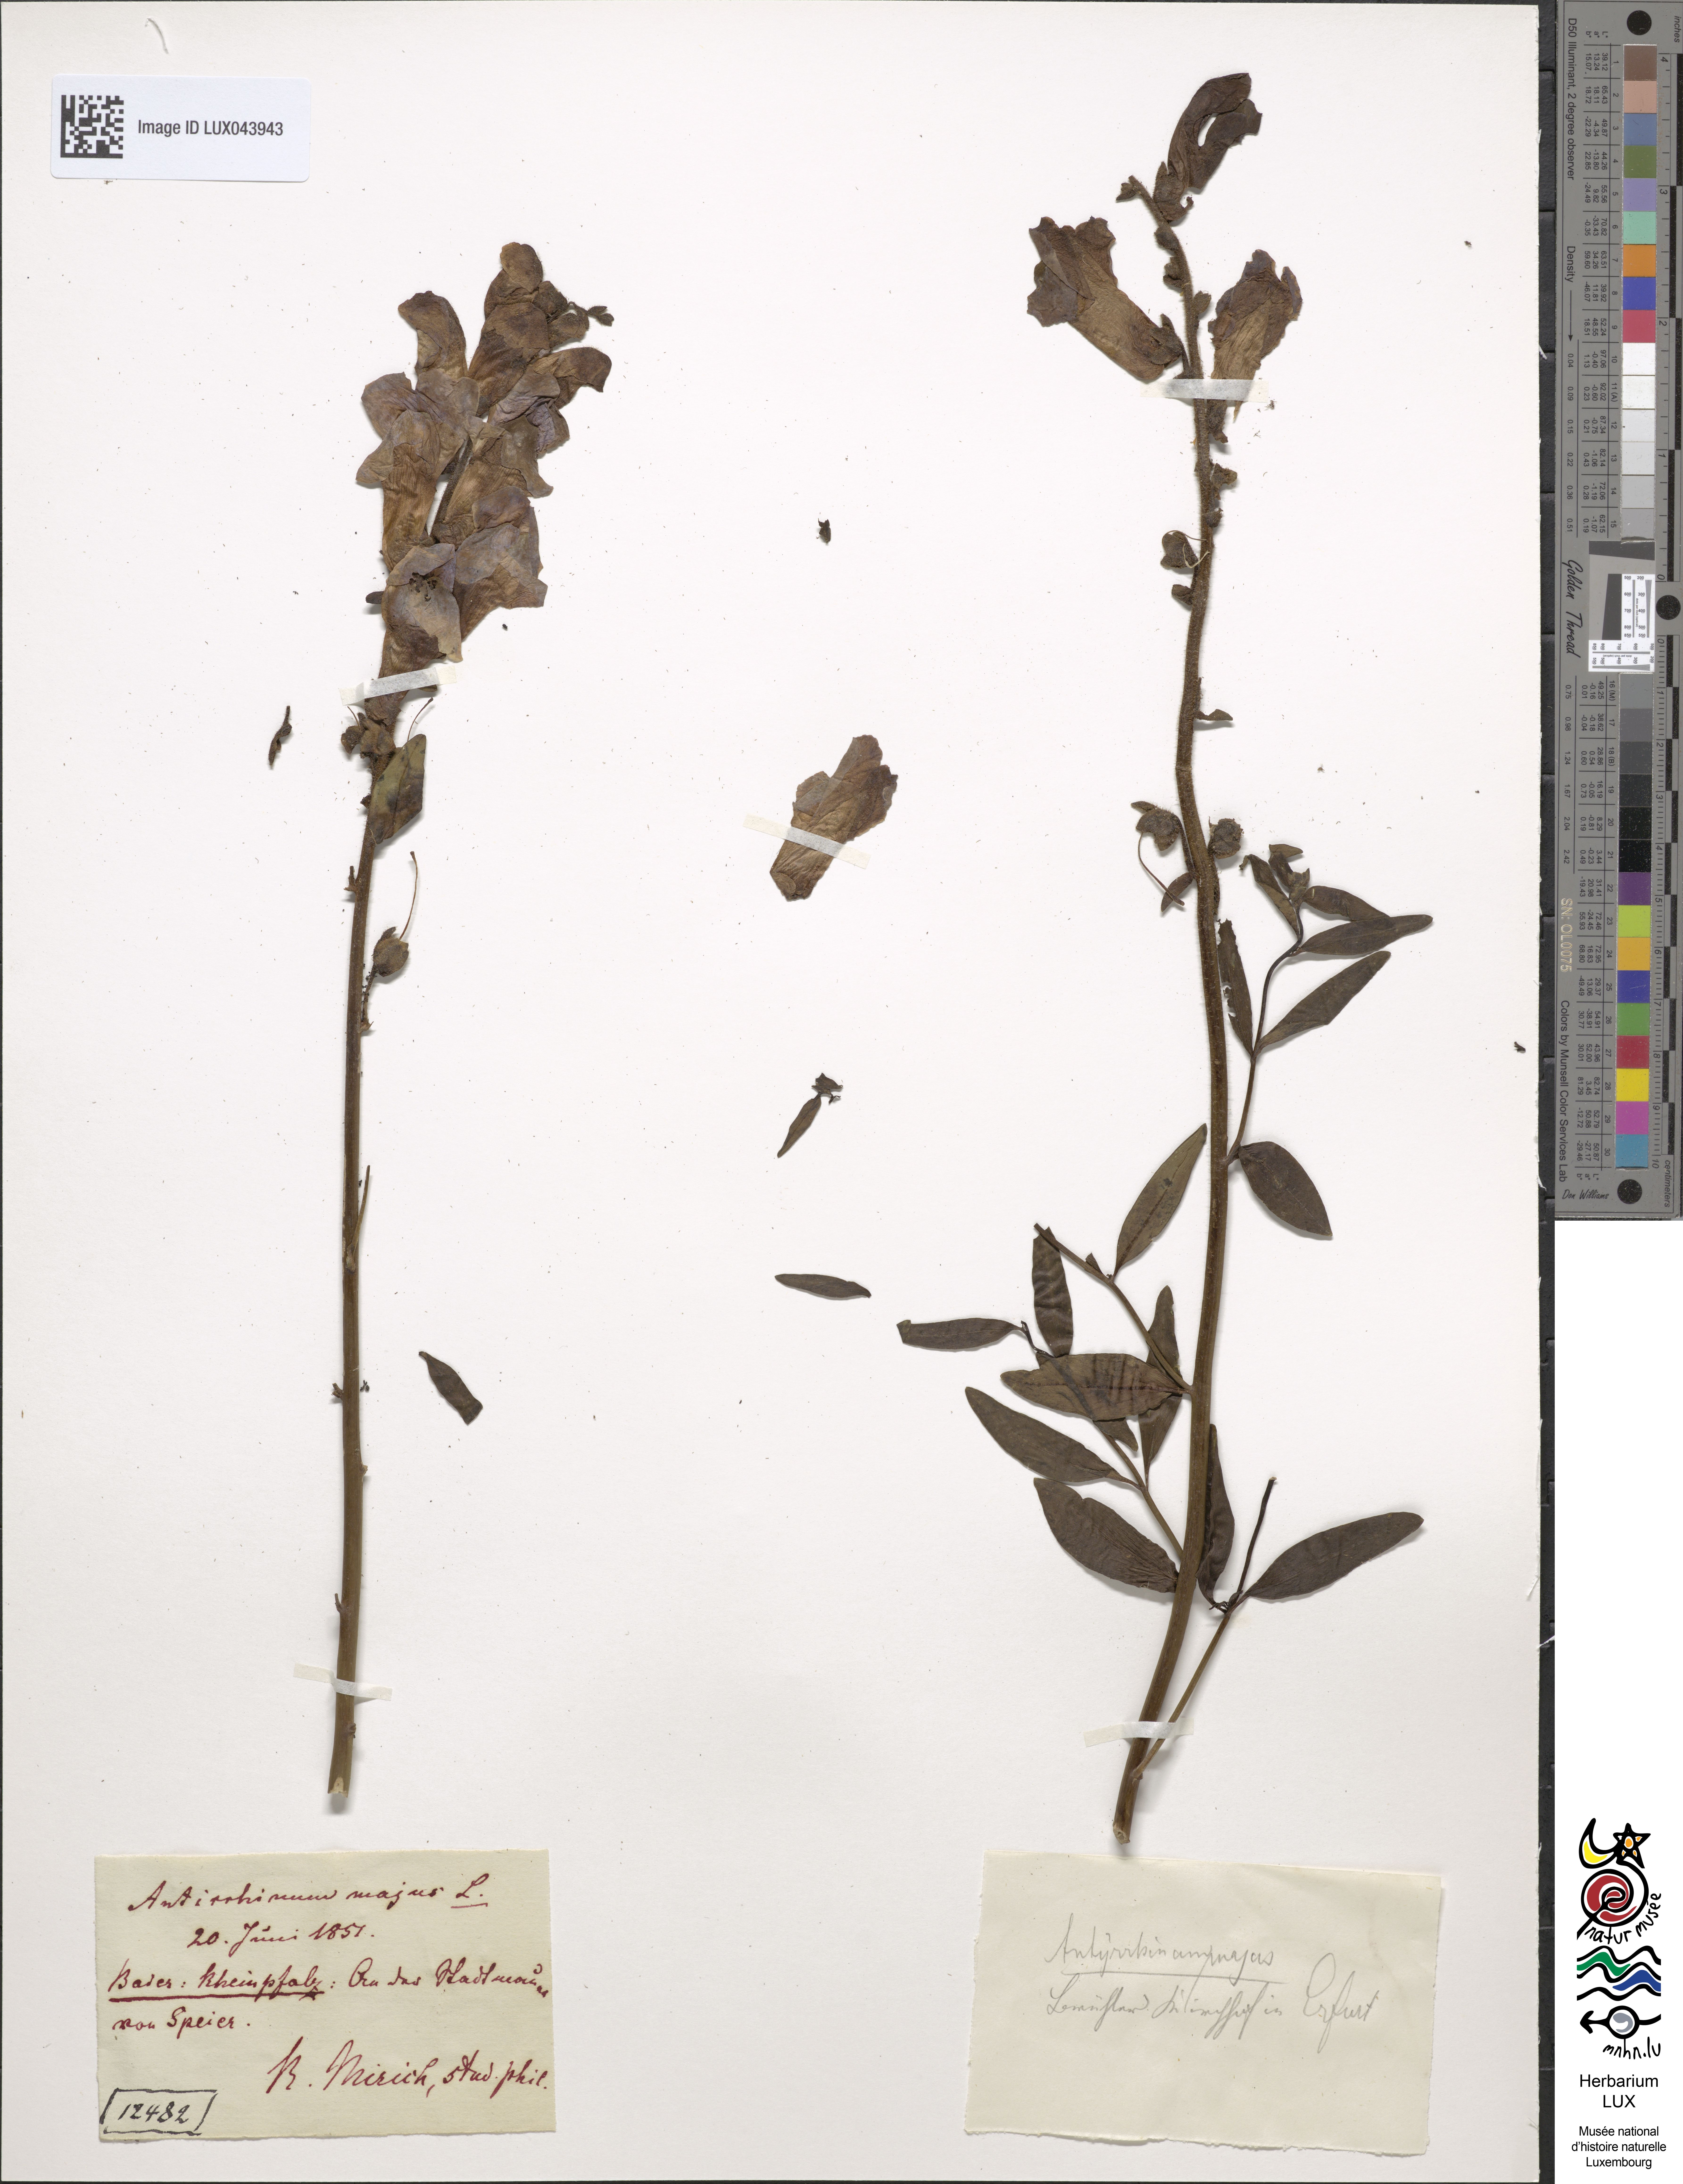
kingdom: Plantae
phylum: Tracheophyta
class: Magnoliopsida
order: Lamiales
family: Plantaginaceae
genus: Antirrhinum
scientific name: Antirrhinum majus
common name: Snapdragon
